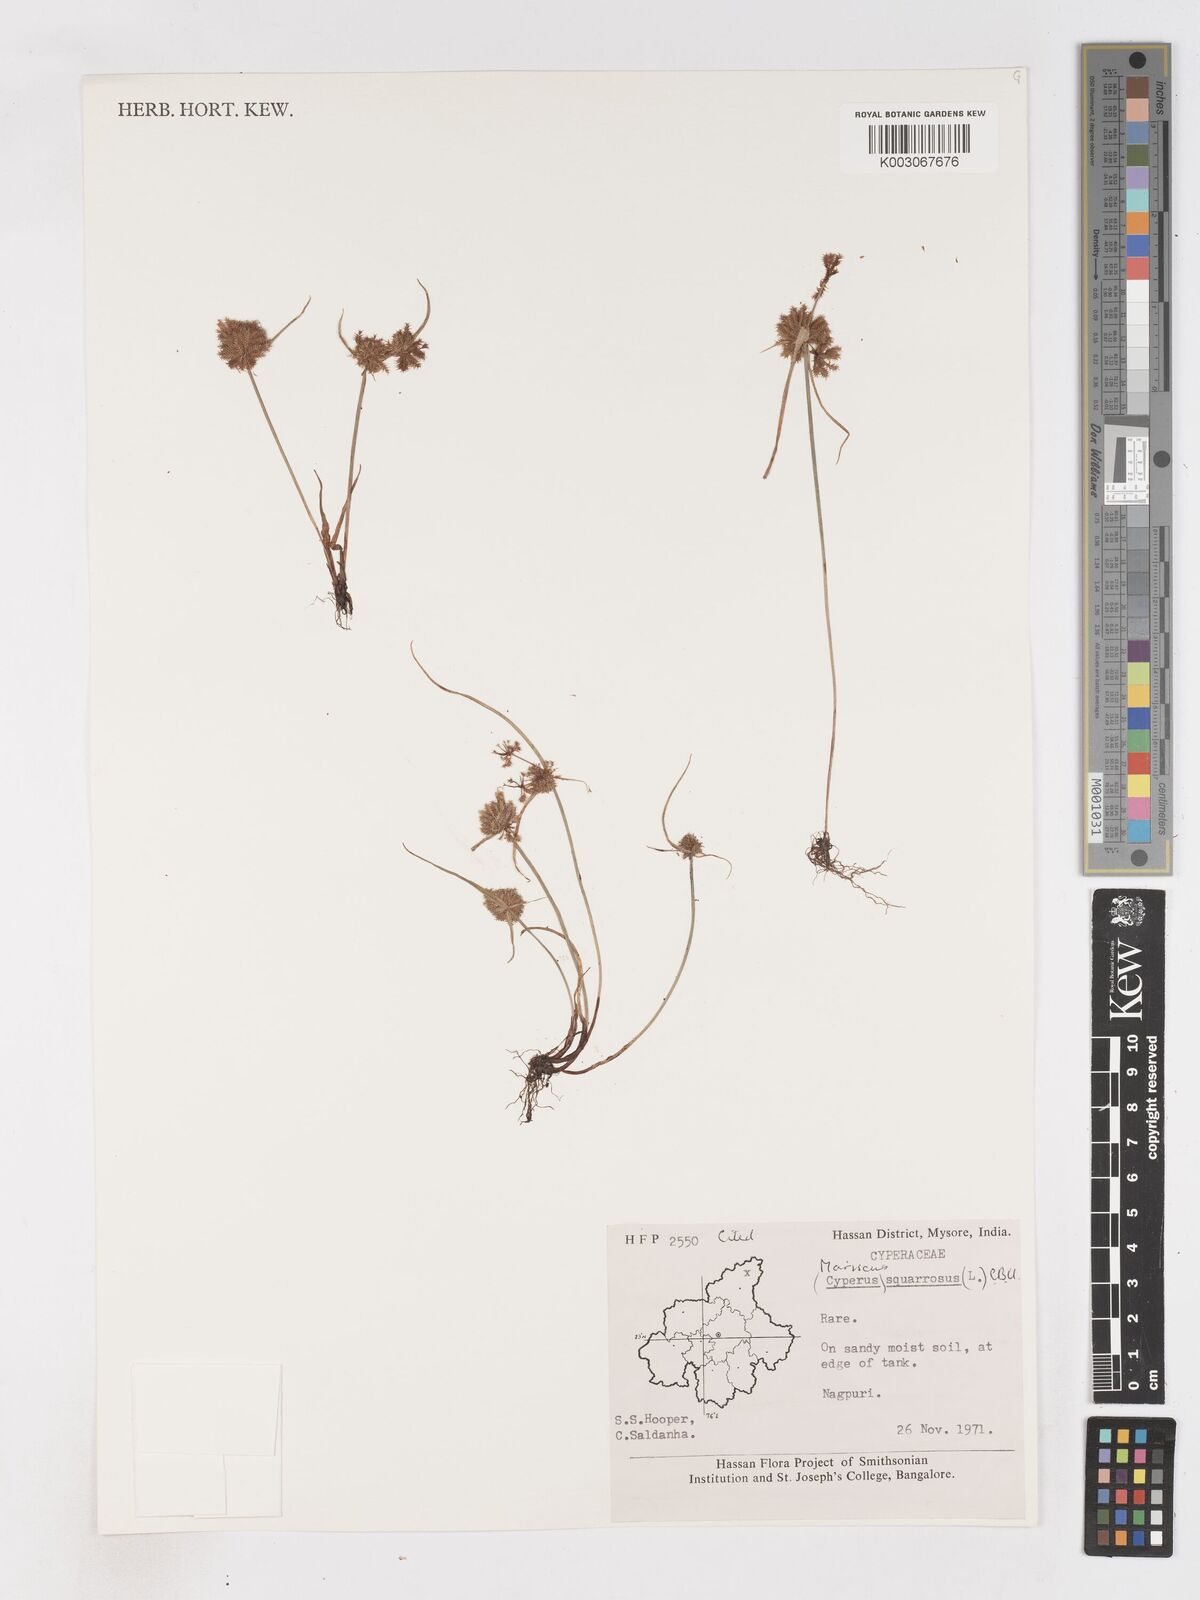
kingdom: Plantae
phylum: Tracheophyta
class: Liliopsida
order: Poales
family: Cyperaceae
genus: Cyperus
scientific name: Cyperus squarrosus
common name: Awned cyperus
